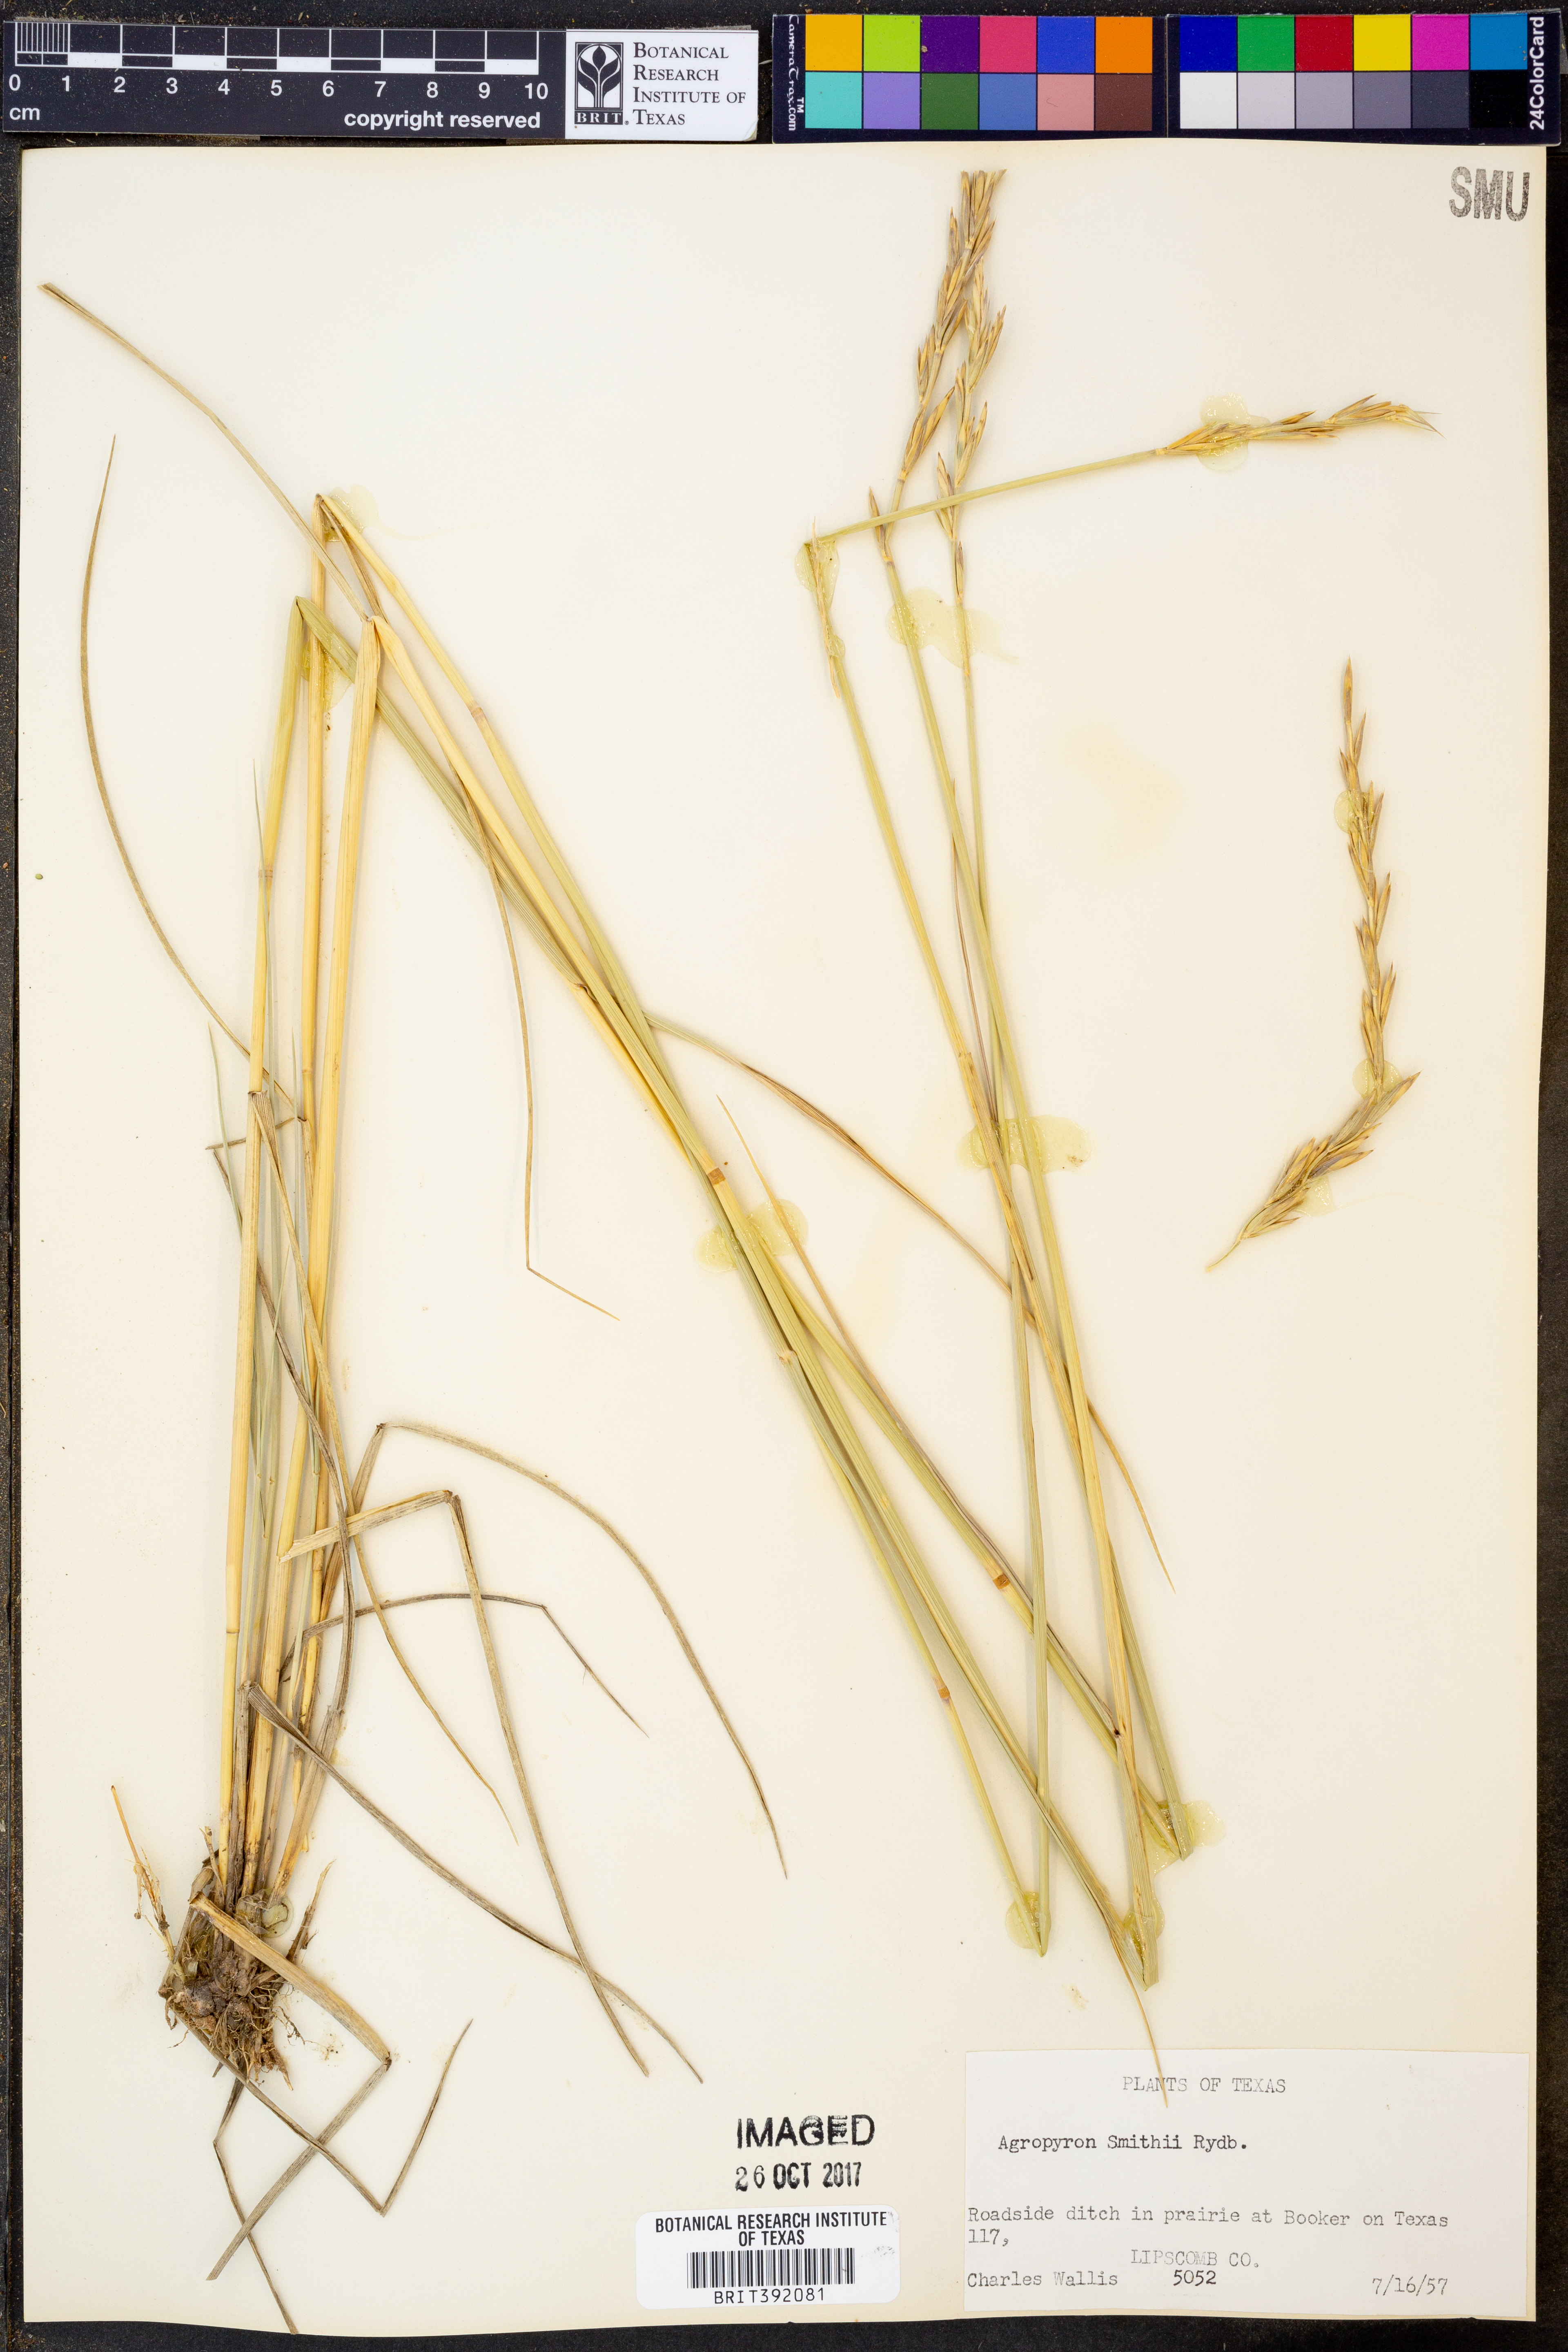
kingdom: Plantae
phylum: Tracheophyta
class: Liliopsida
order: Poales
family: Poaceae
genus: Elymus
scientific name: Elymus smithii
